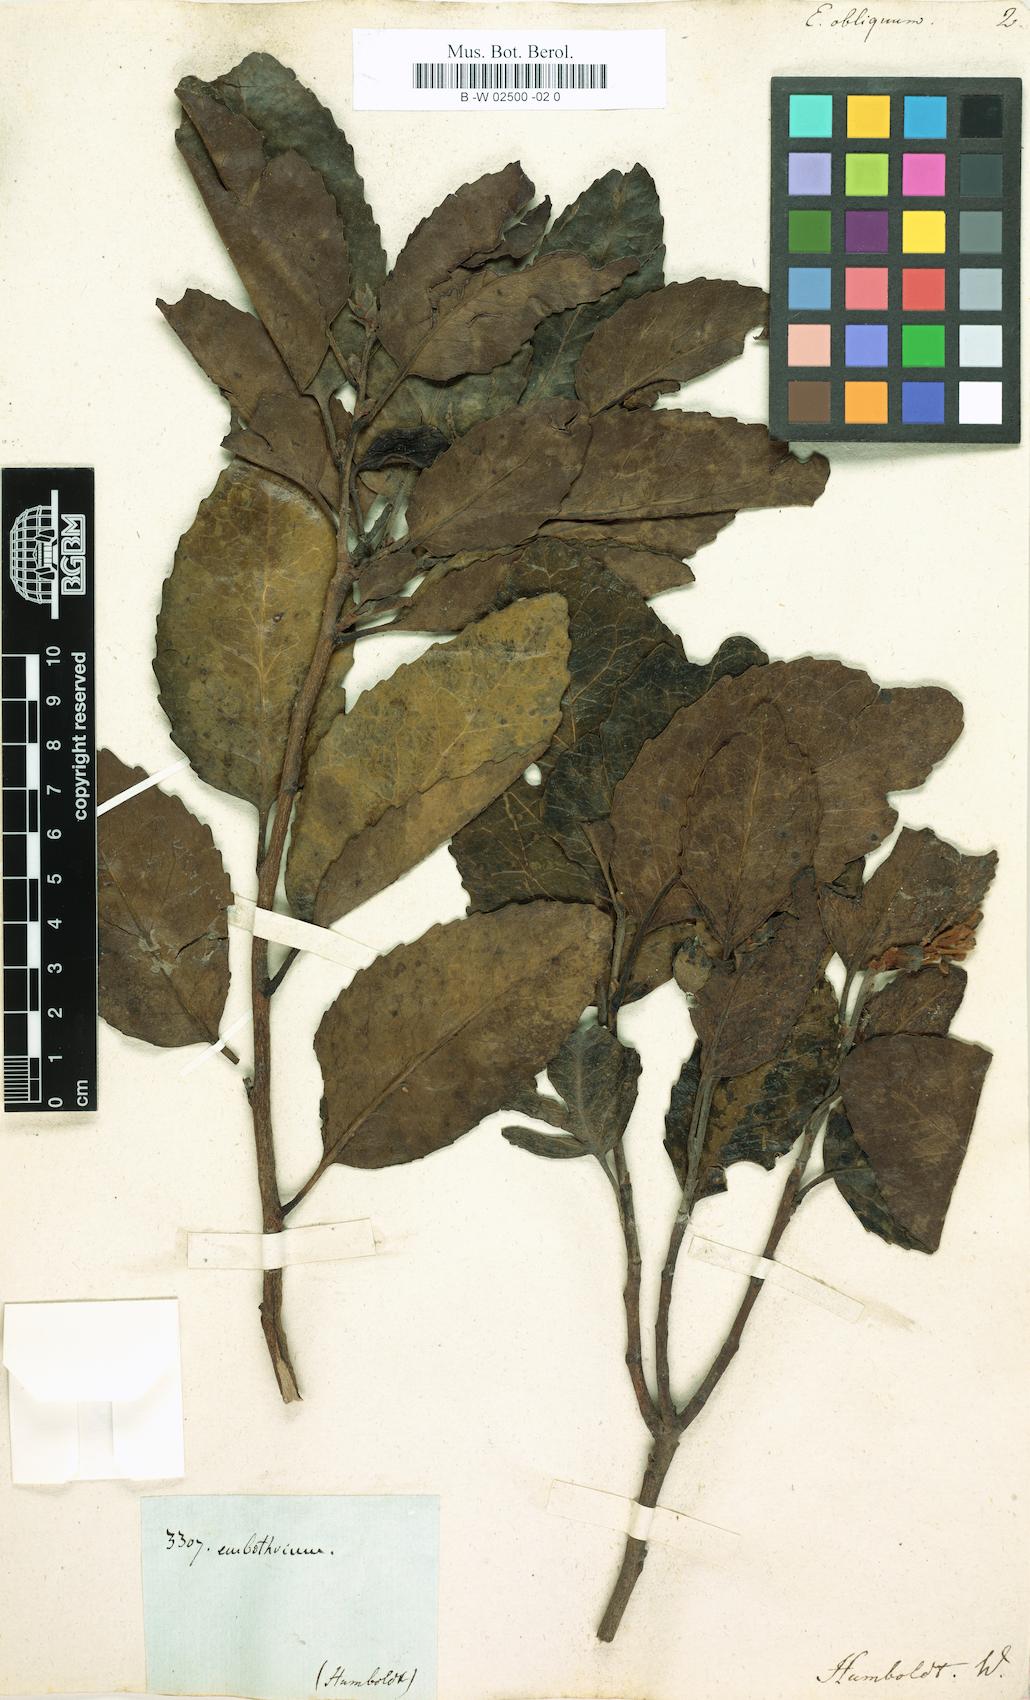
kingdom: Plantae
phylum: Tracheophyta
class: Magnoliopsida
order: Proteales
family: Proteaceae
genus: Lomatia
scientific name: Lomatia hirsuta
